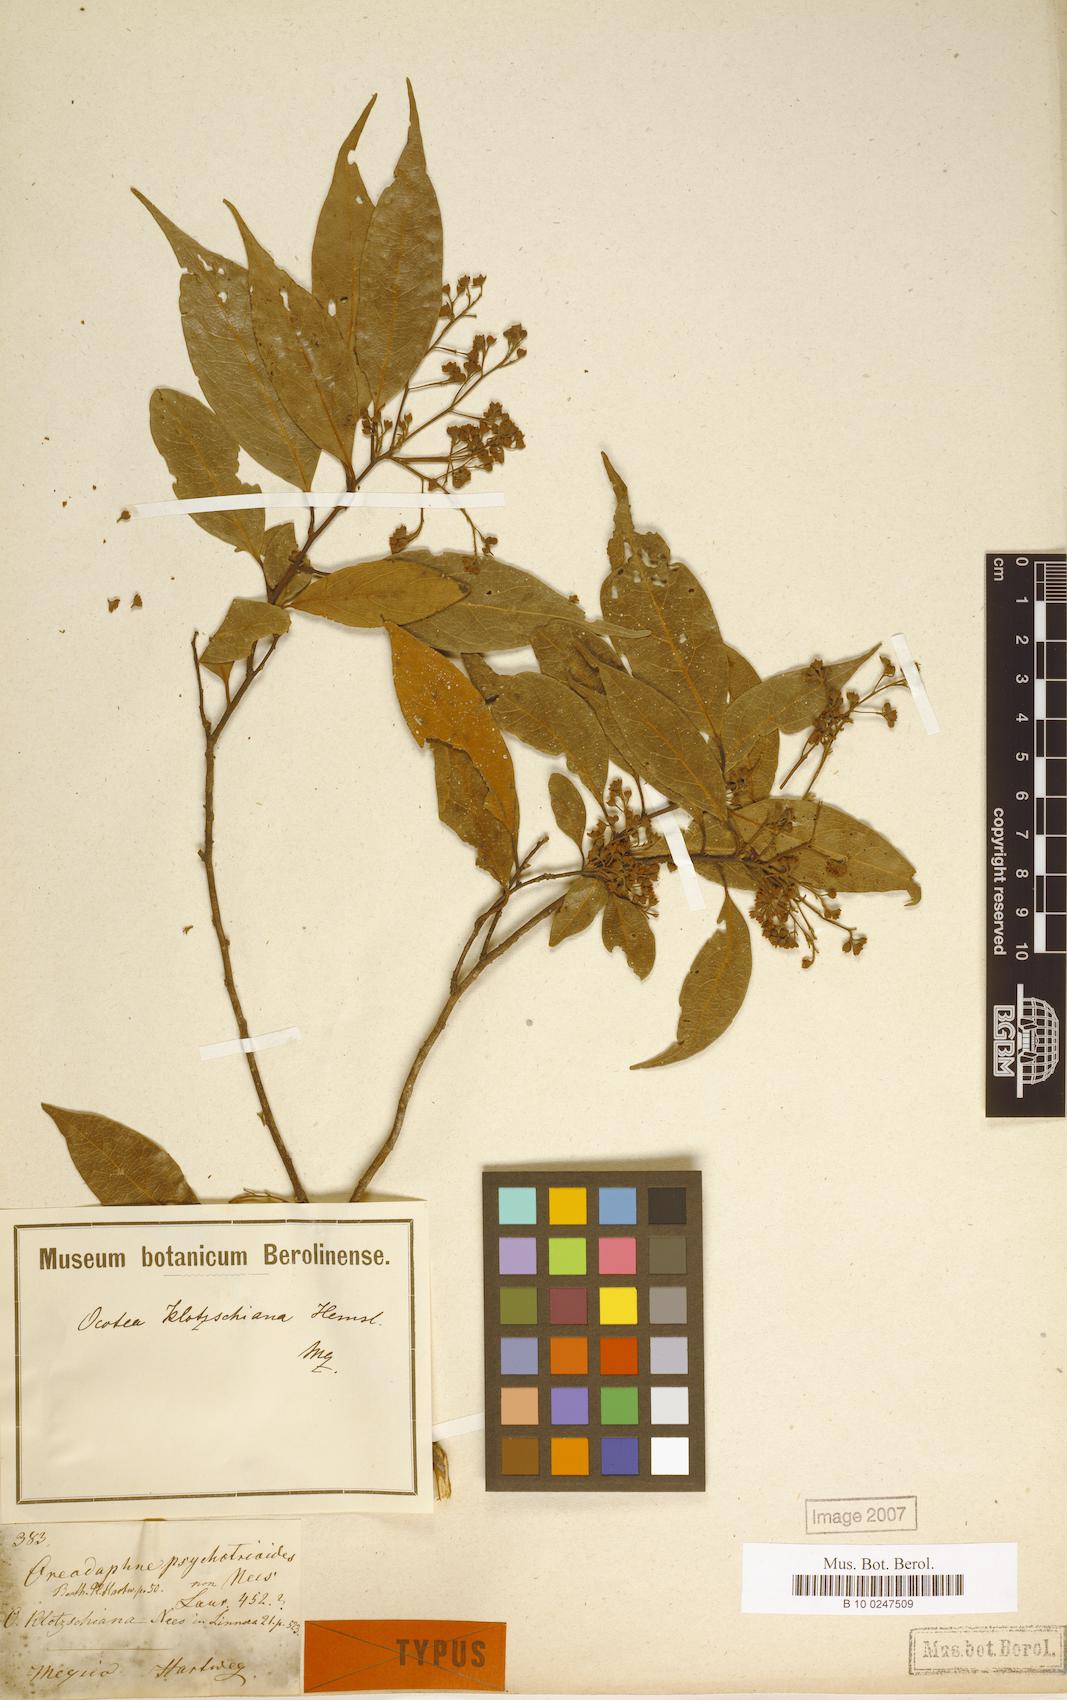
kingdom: Plantae
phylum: Tracheophyta
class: Magnoliopsida
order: Laurales
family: Lauraceae
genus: Ocotea
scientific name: Ocotea klotzschiana
